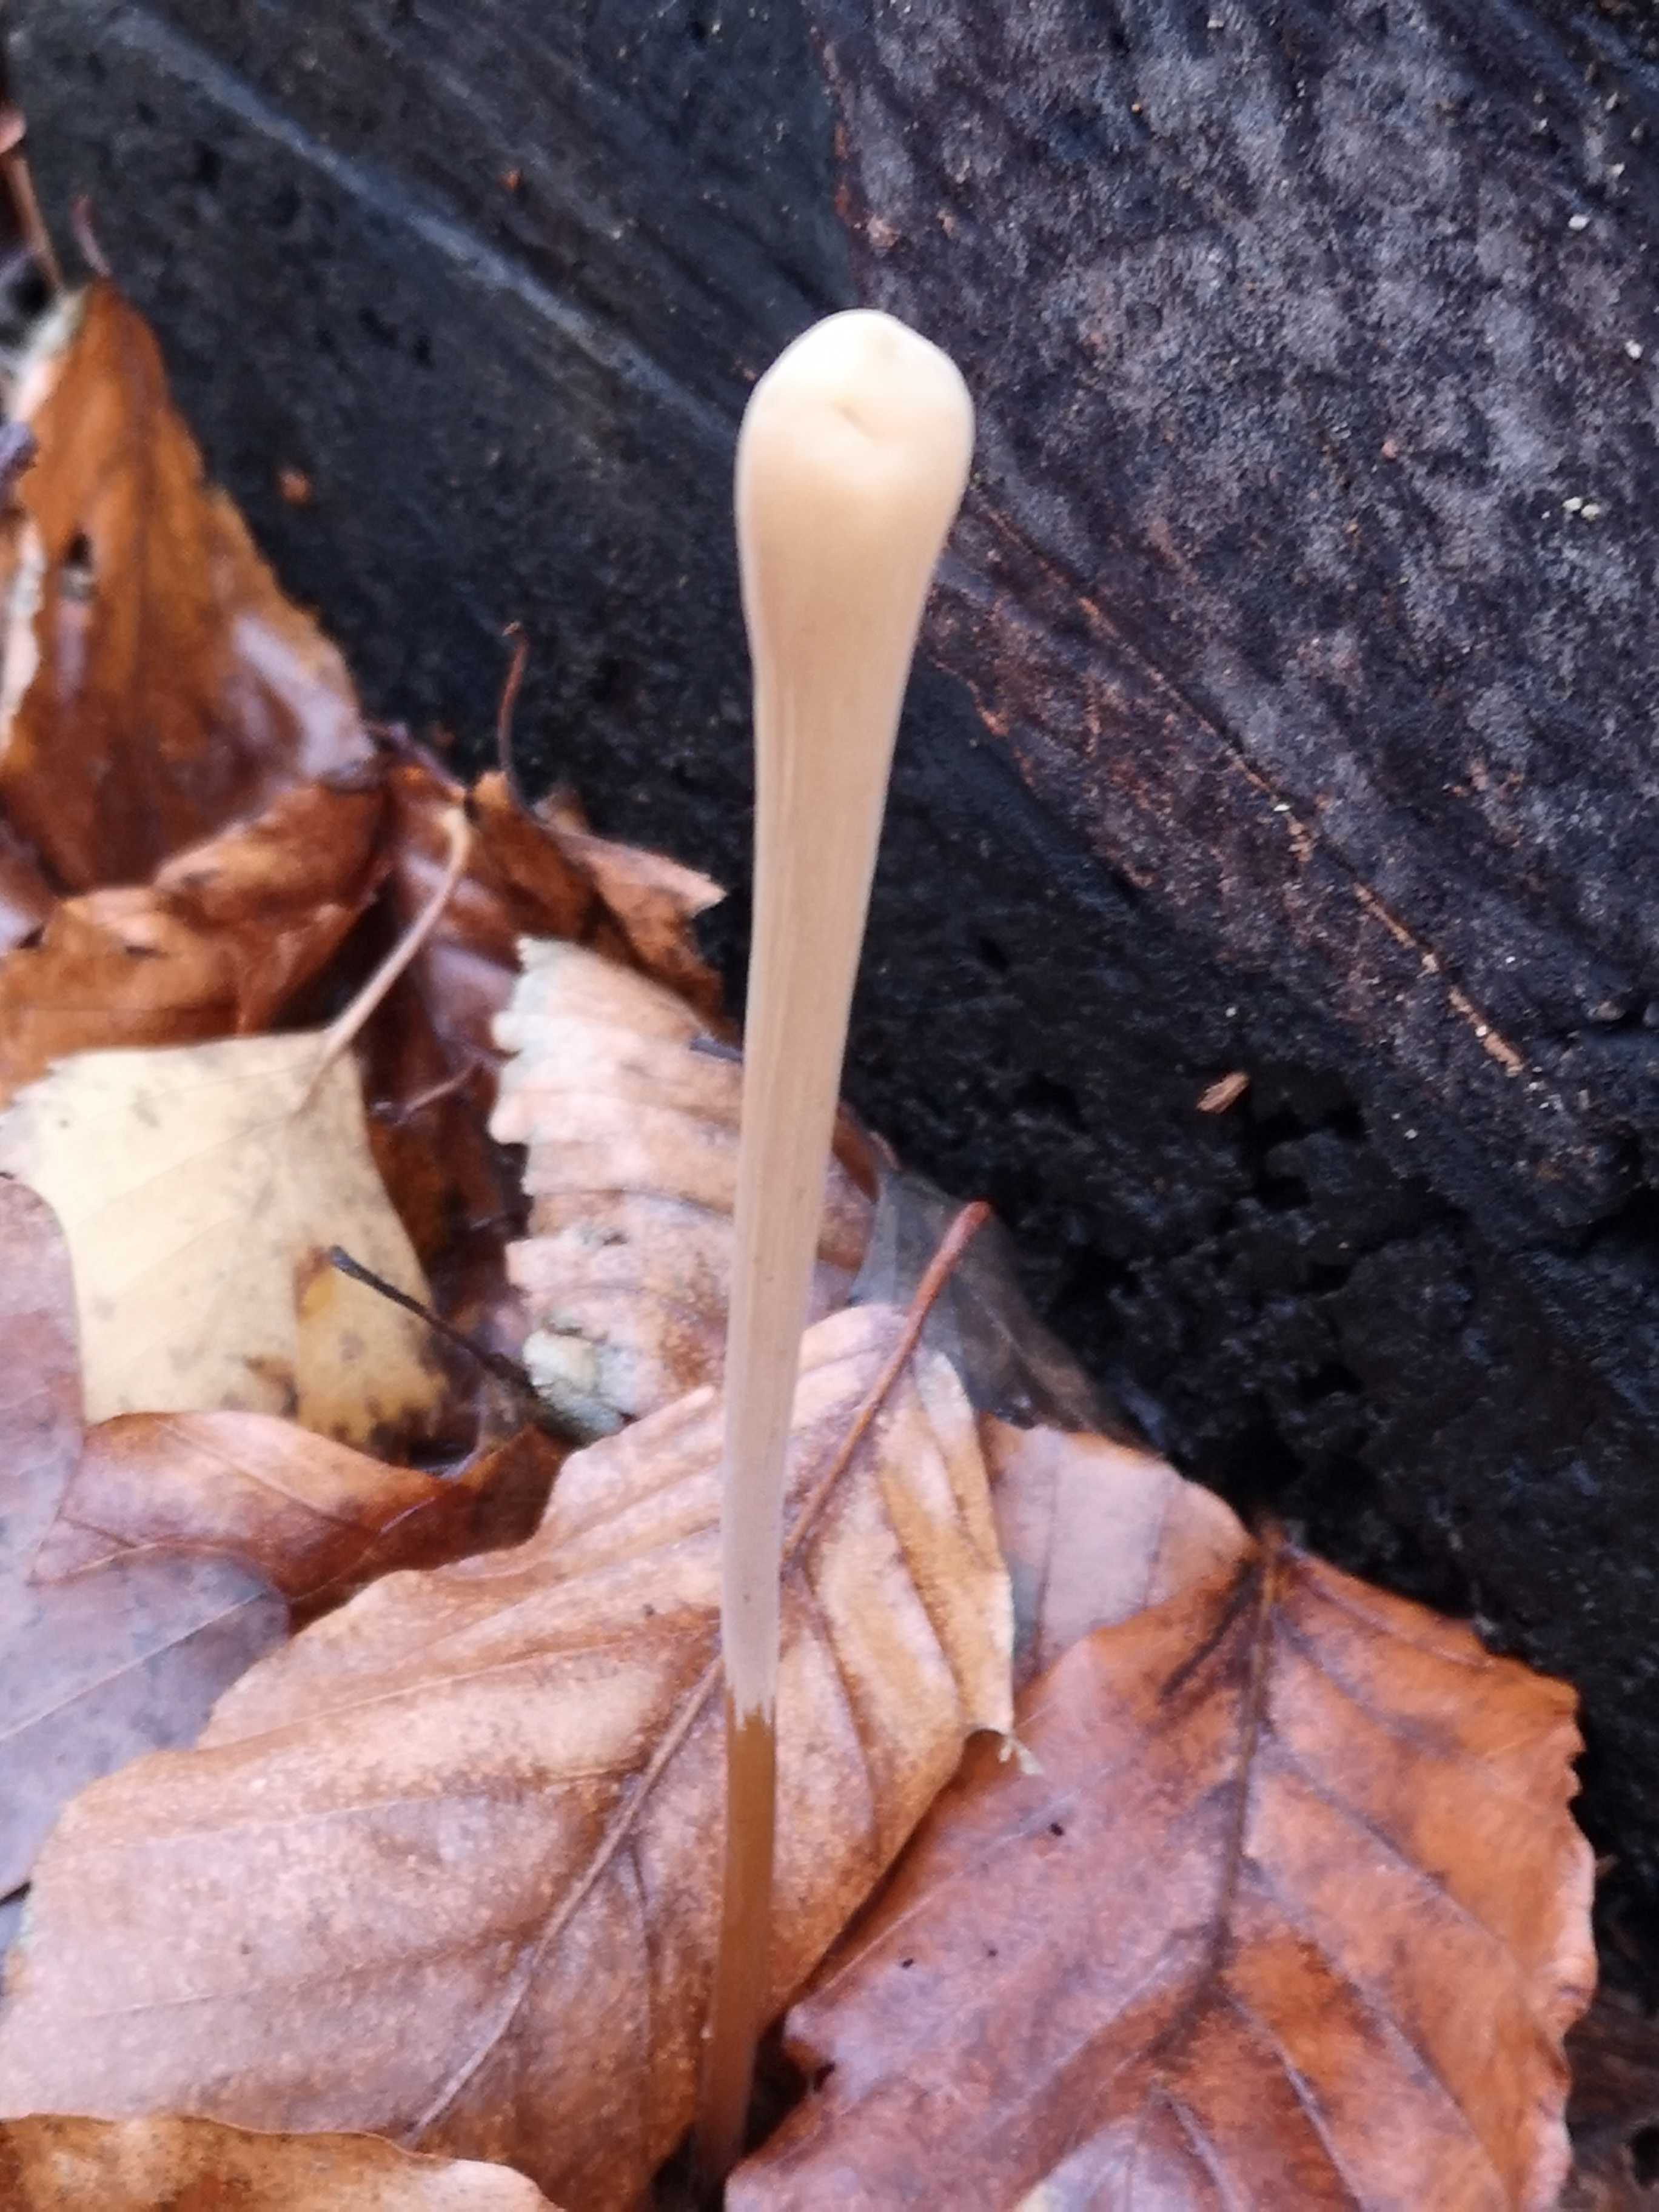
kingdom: Fungi
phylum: Basidiomycota
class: Agaricomycetes
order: Agaricales
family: Typhulaceae
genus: Typhula
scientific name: Typhula fistulosa
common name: pibet rørkølle
